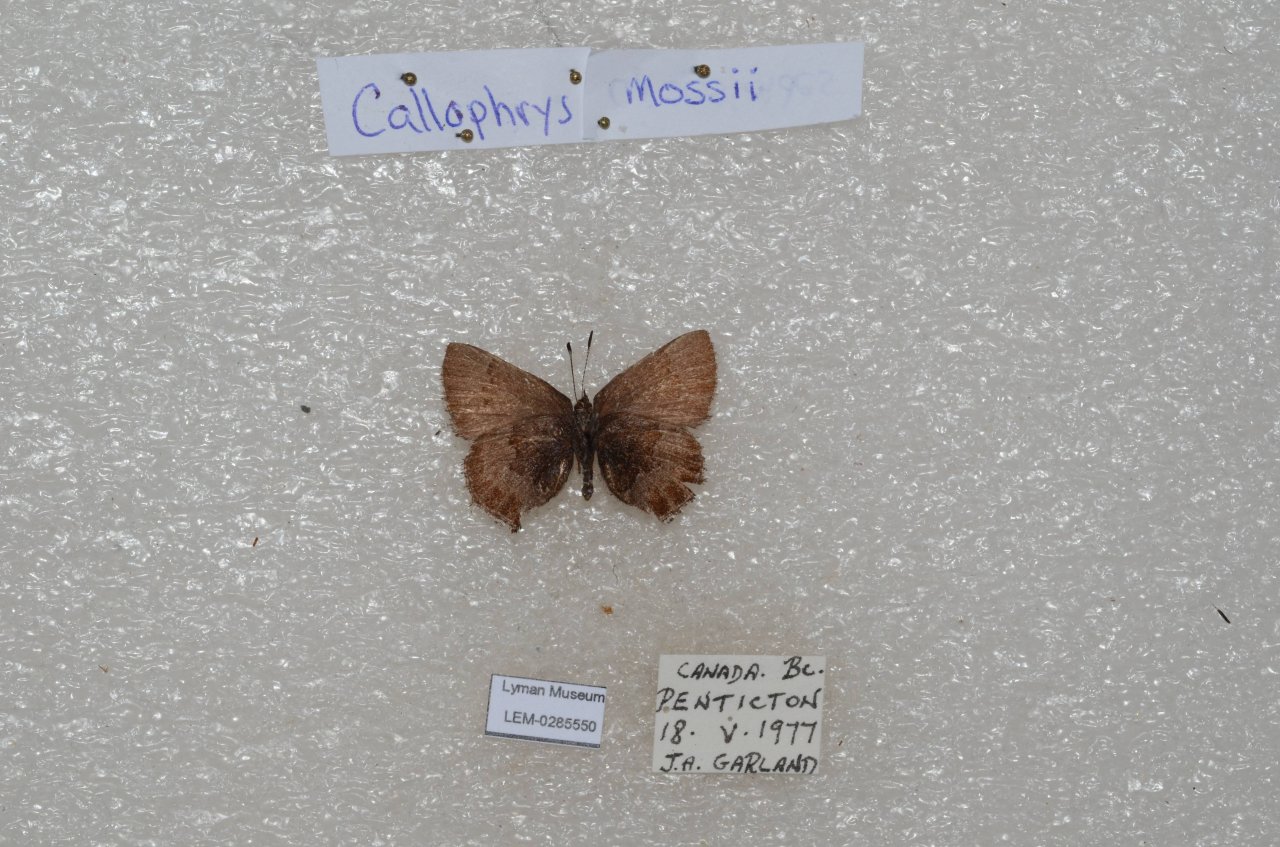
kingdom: Animalia
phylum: Arthropoda
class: Insecta
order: Lepidoptera
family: Lycaenidae
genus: Callophrys
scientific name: Callophrys mossii
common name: Moss' Elfin
